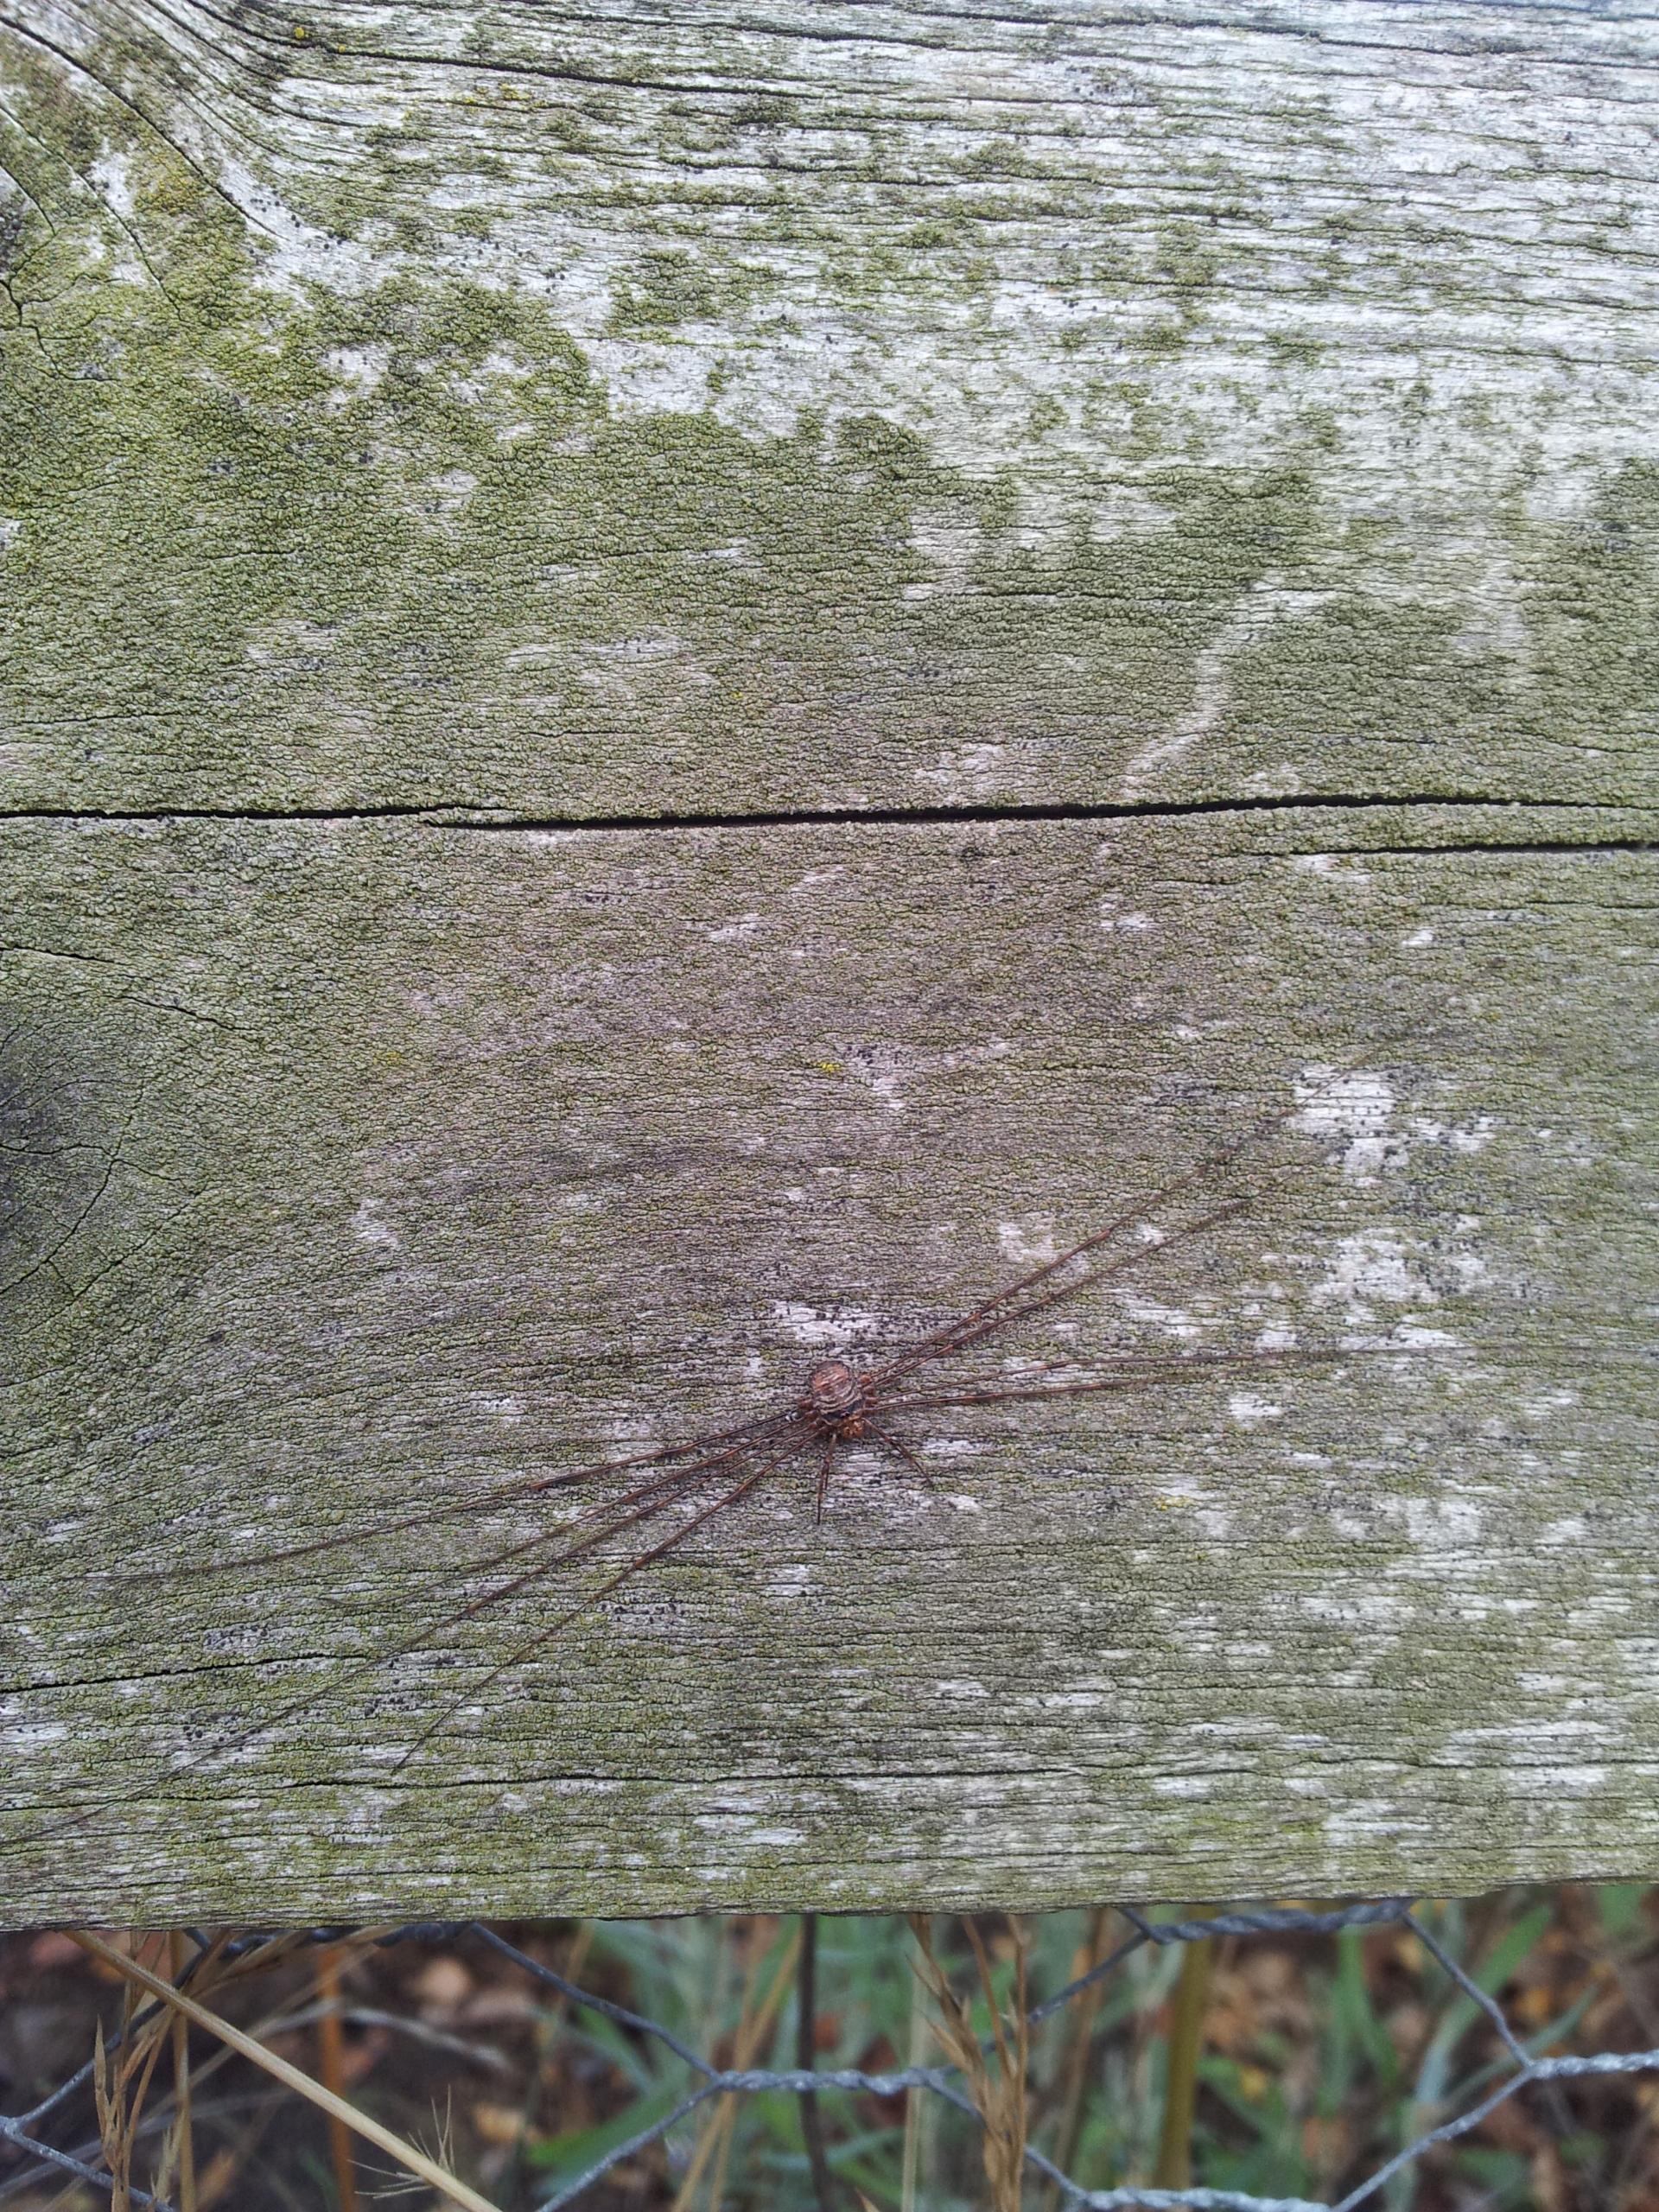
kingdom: Animalia
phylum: Arthropoda
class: Arachnida
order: Opiliones
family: Phalangiidae
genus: Dicranopalpus
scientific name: Dicranopalpus ramosus
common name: Gaffelmejer
